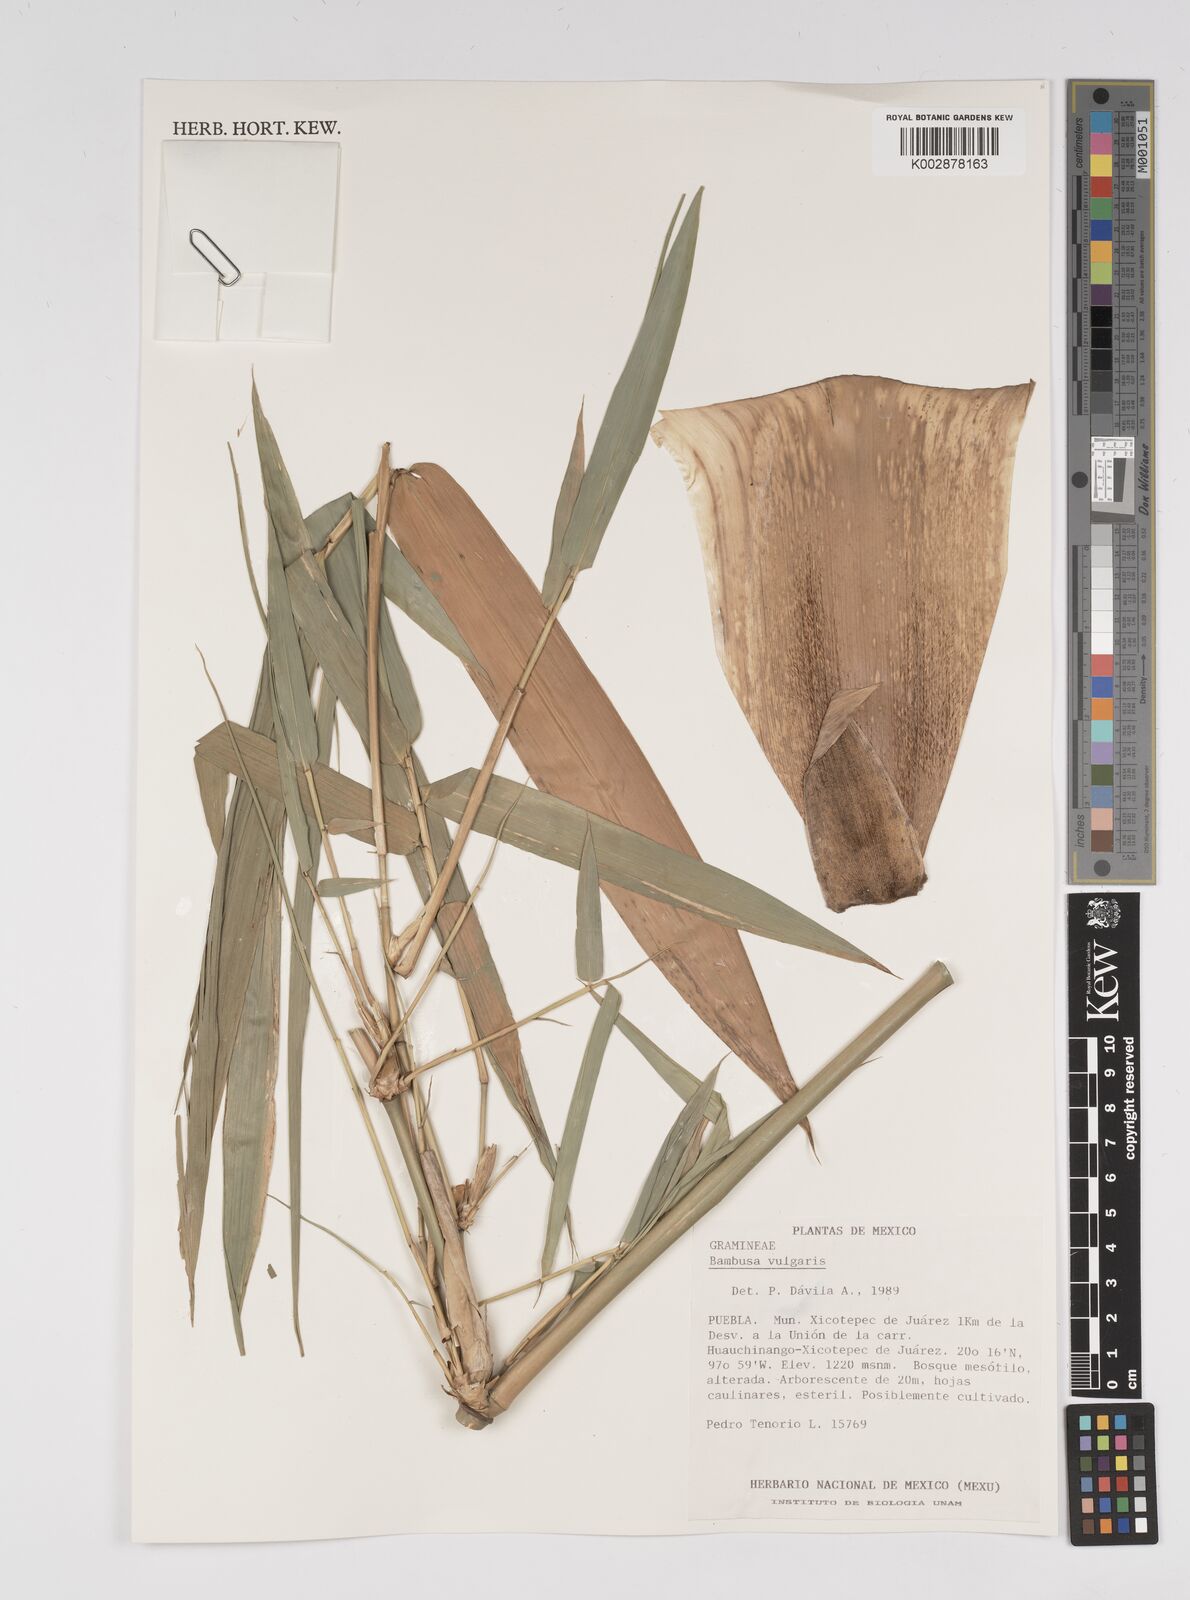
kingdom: Plantae
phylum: Tracheophyta
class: Liliopsida
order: Poales
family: Poaceae
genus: Bambusa
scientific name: Bambusa
